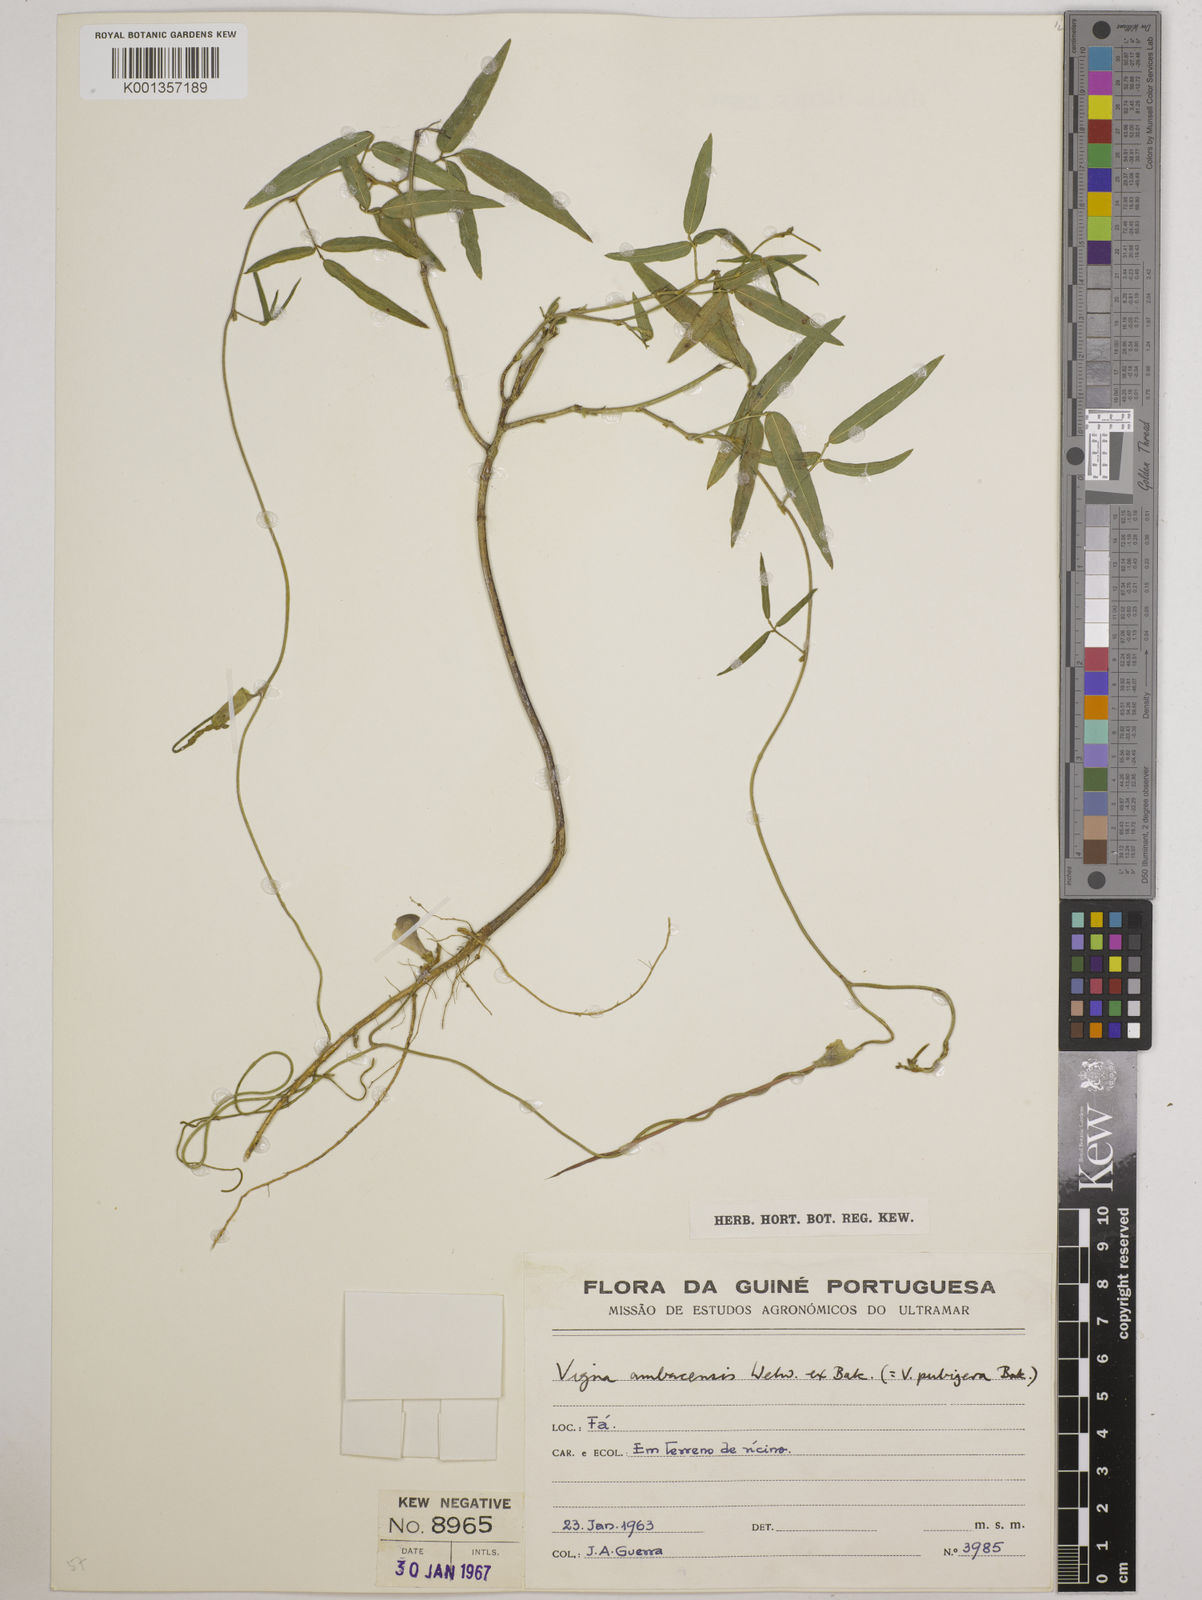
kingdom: Plantae
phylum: Tracheophyta
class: Magnoliopsida
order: Fabales
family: Fabaceae
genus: Vigna
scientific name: Vigna ambacensis
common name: Tsarkiyan zomo
